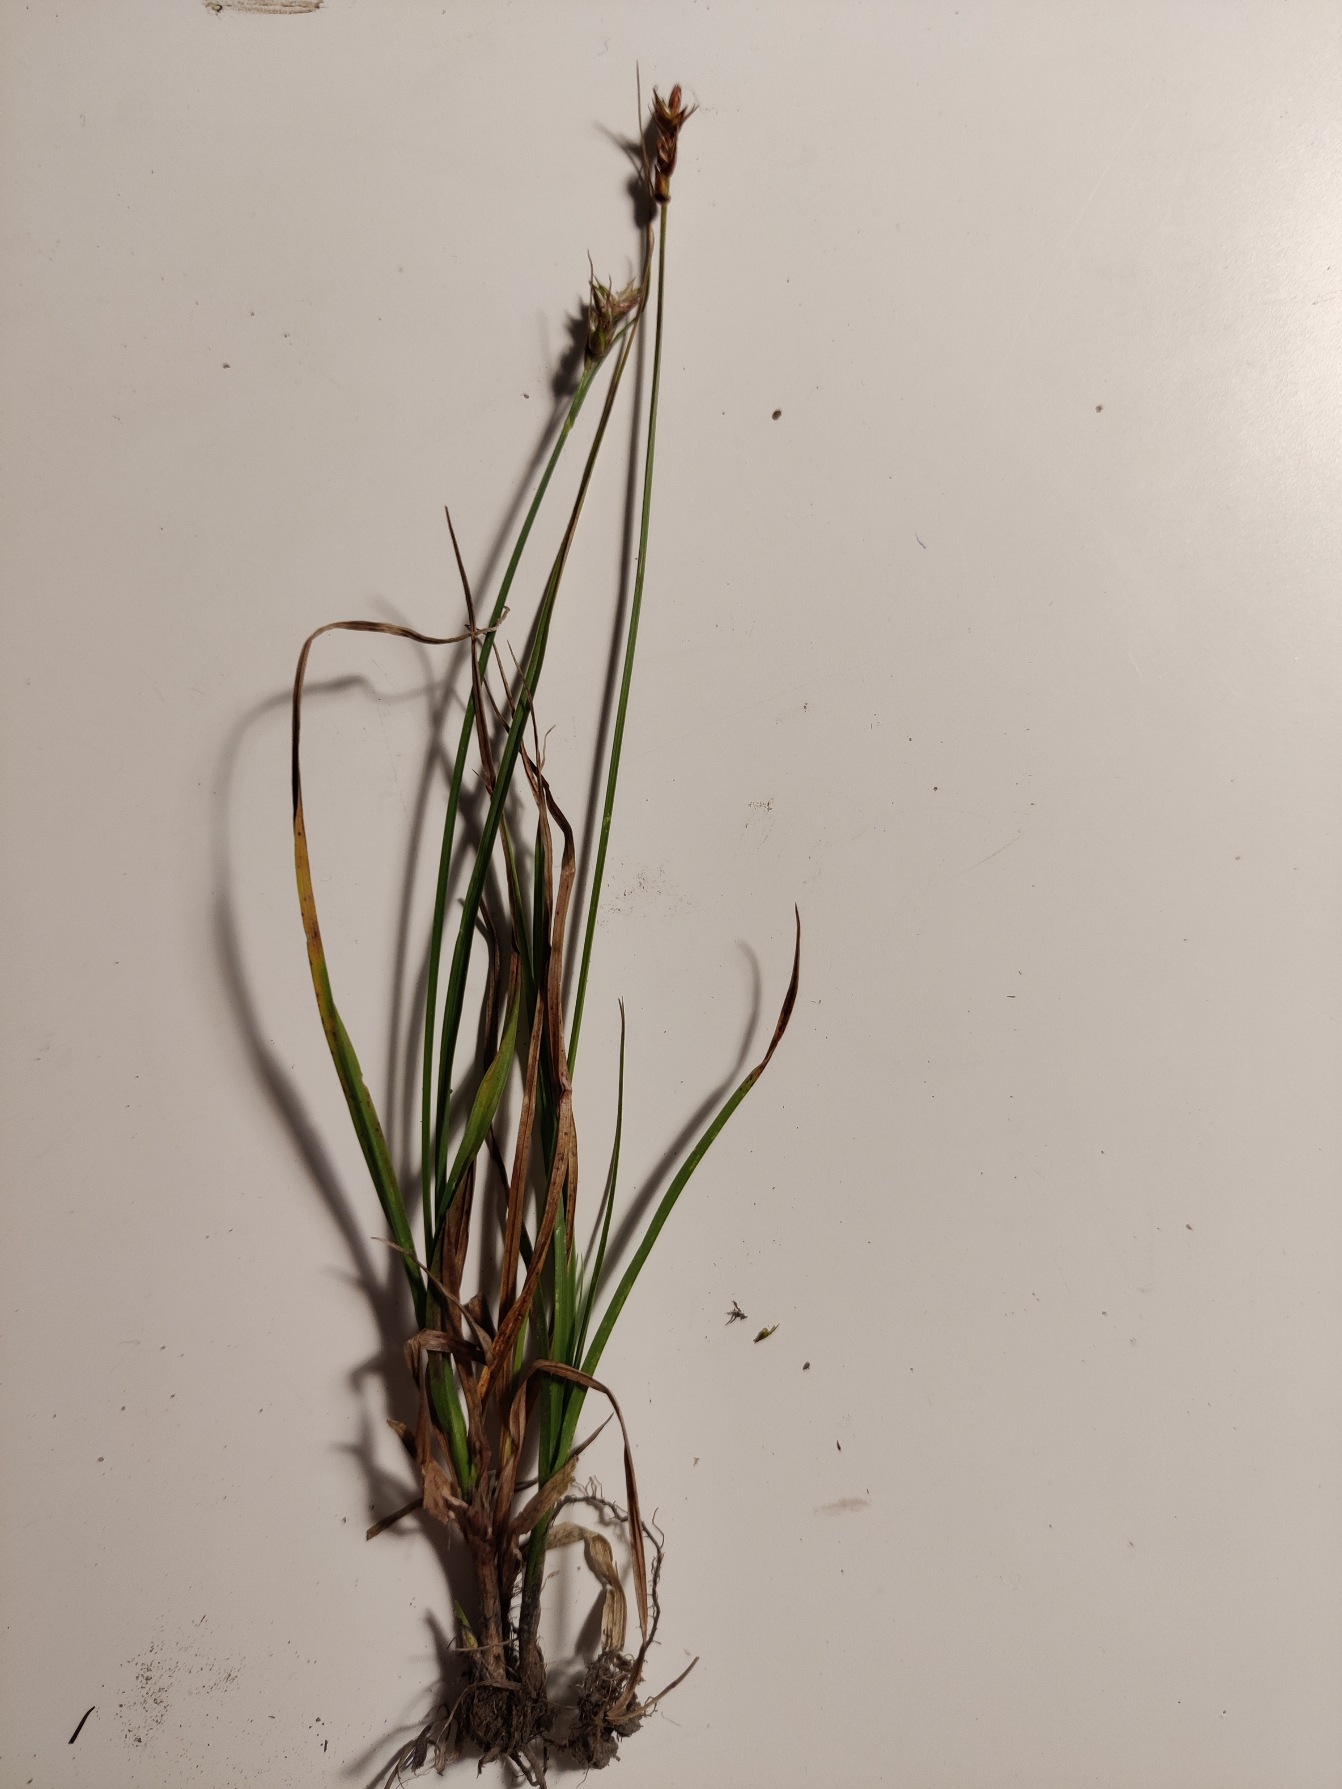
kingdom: Plantae
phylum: Tracheophyta
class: Liliopsida
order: Poales
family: Cyperaceae
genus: Carex
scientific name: Carex spicata
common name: Spidskapslet star
